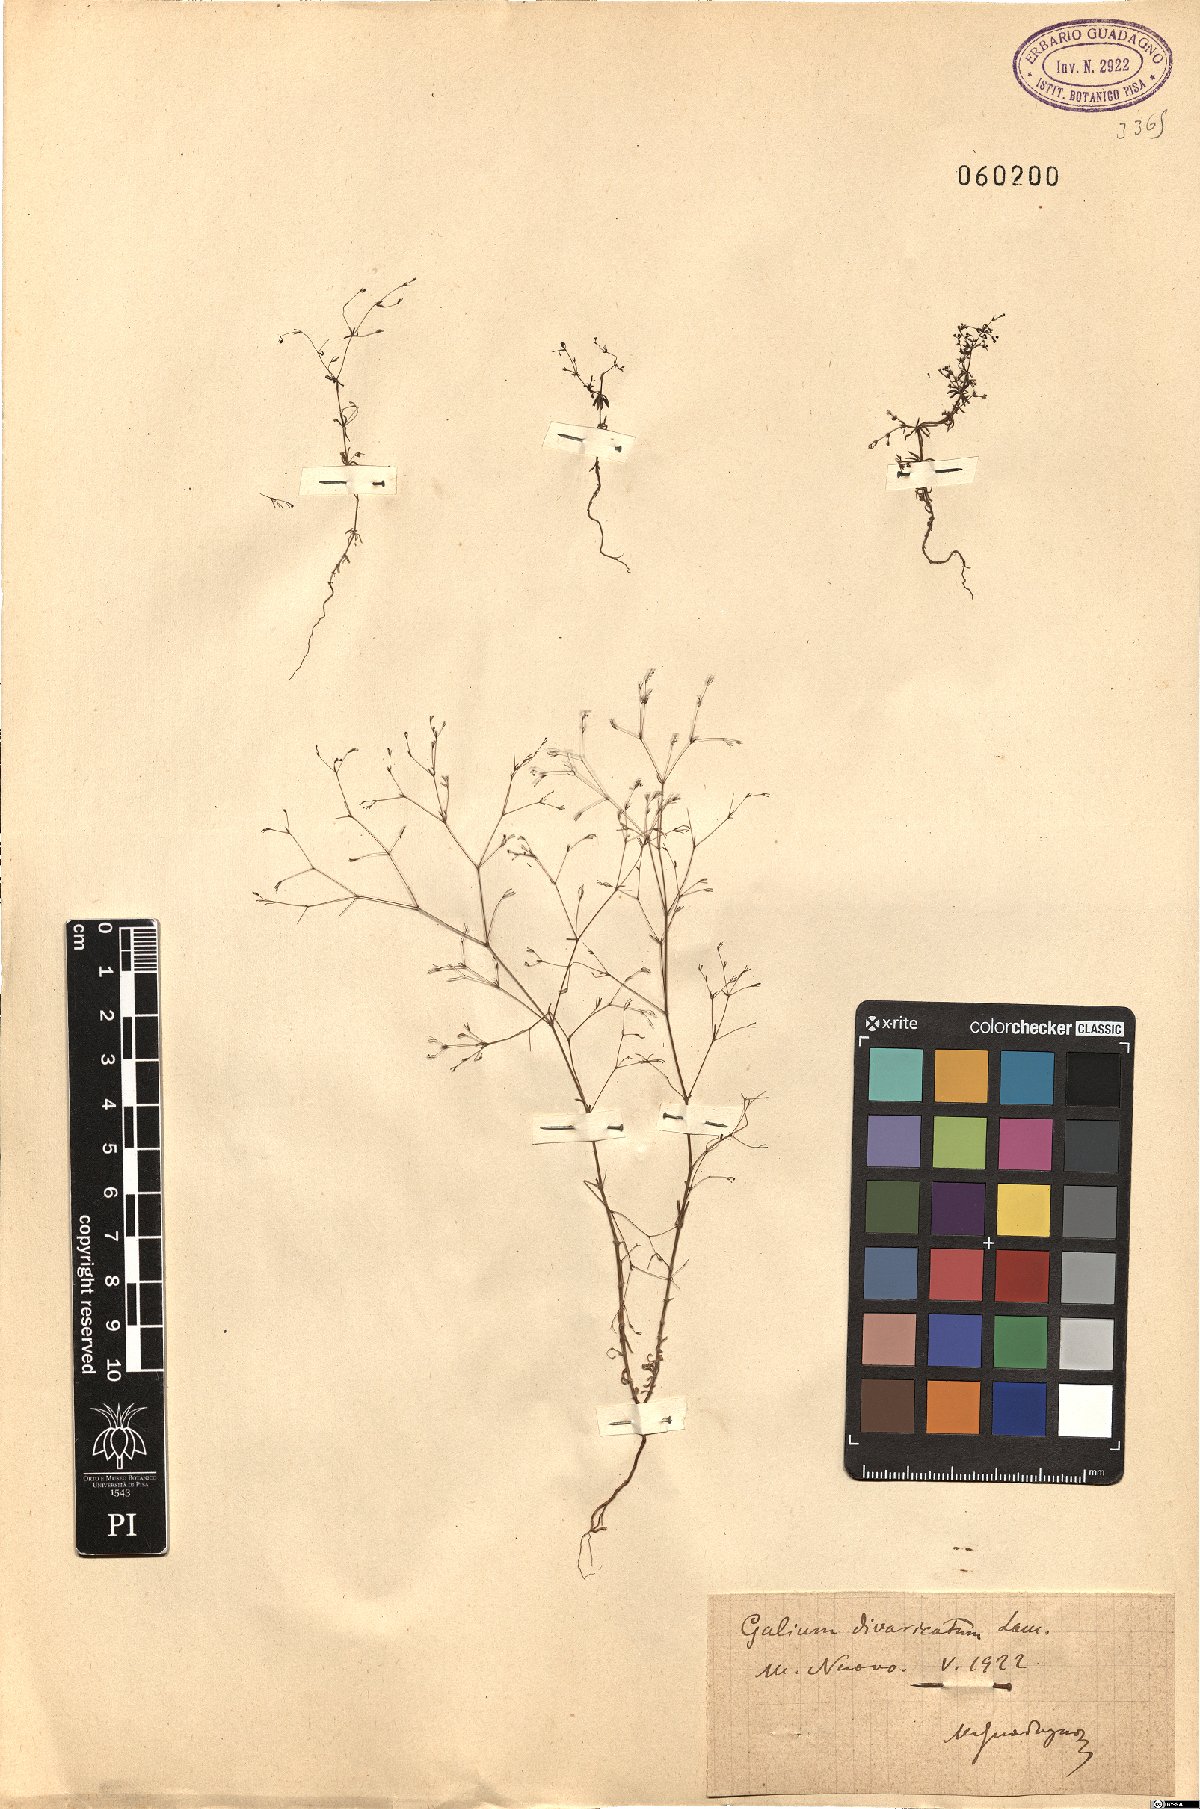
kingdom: Plantae
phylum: Tracheophyta
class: Magnoliopsida
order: Gentianales
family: Rubiaceae
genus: Galium
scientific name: Galium divaricatum
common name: Lamarck's bedstraw
